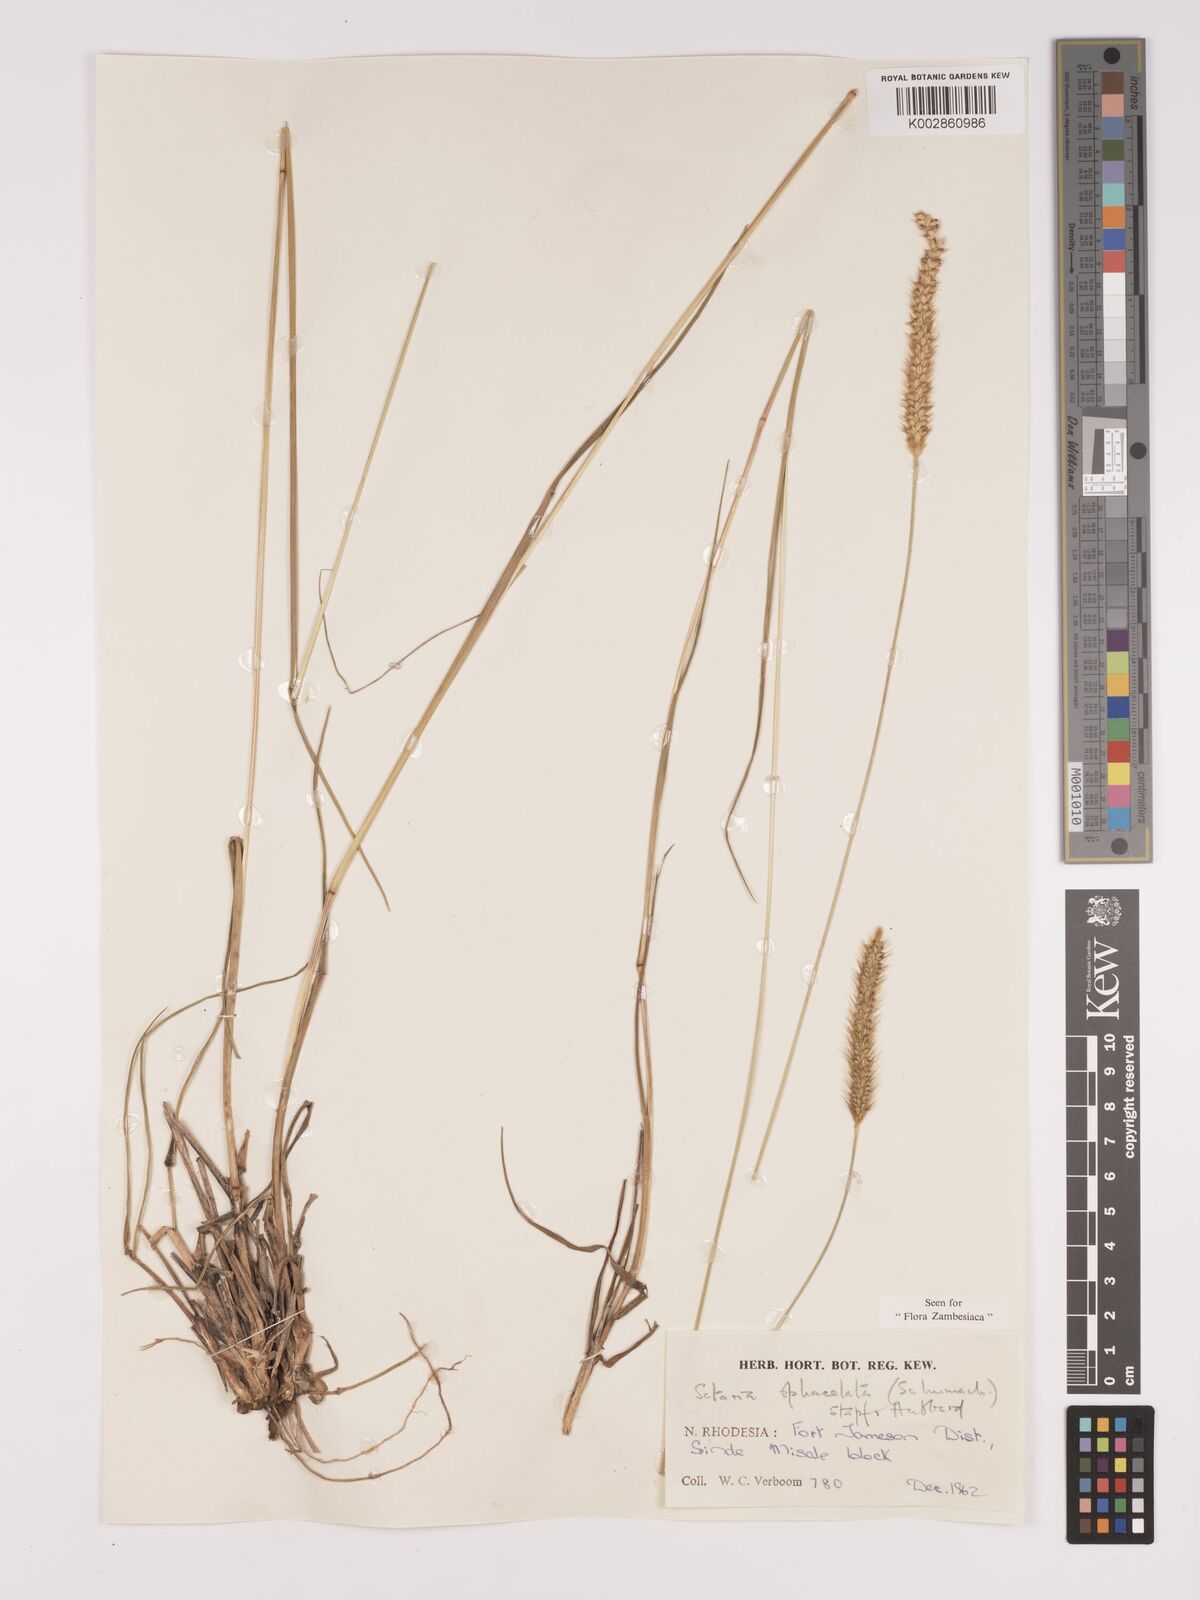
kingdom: Plantae
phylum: Tracheophyta
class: Liliopsida
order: Poales
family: Poaceae
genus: Setaria
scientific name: Setaria
